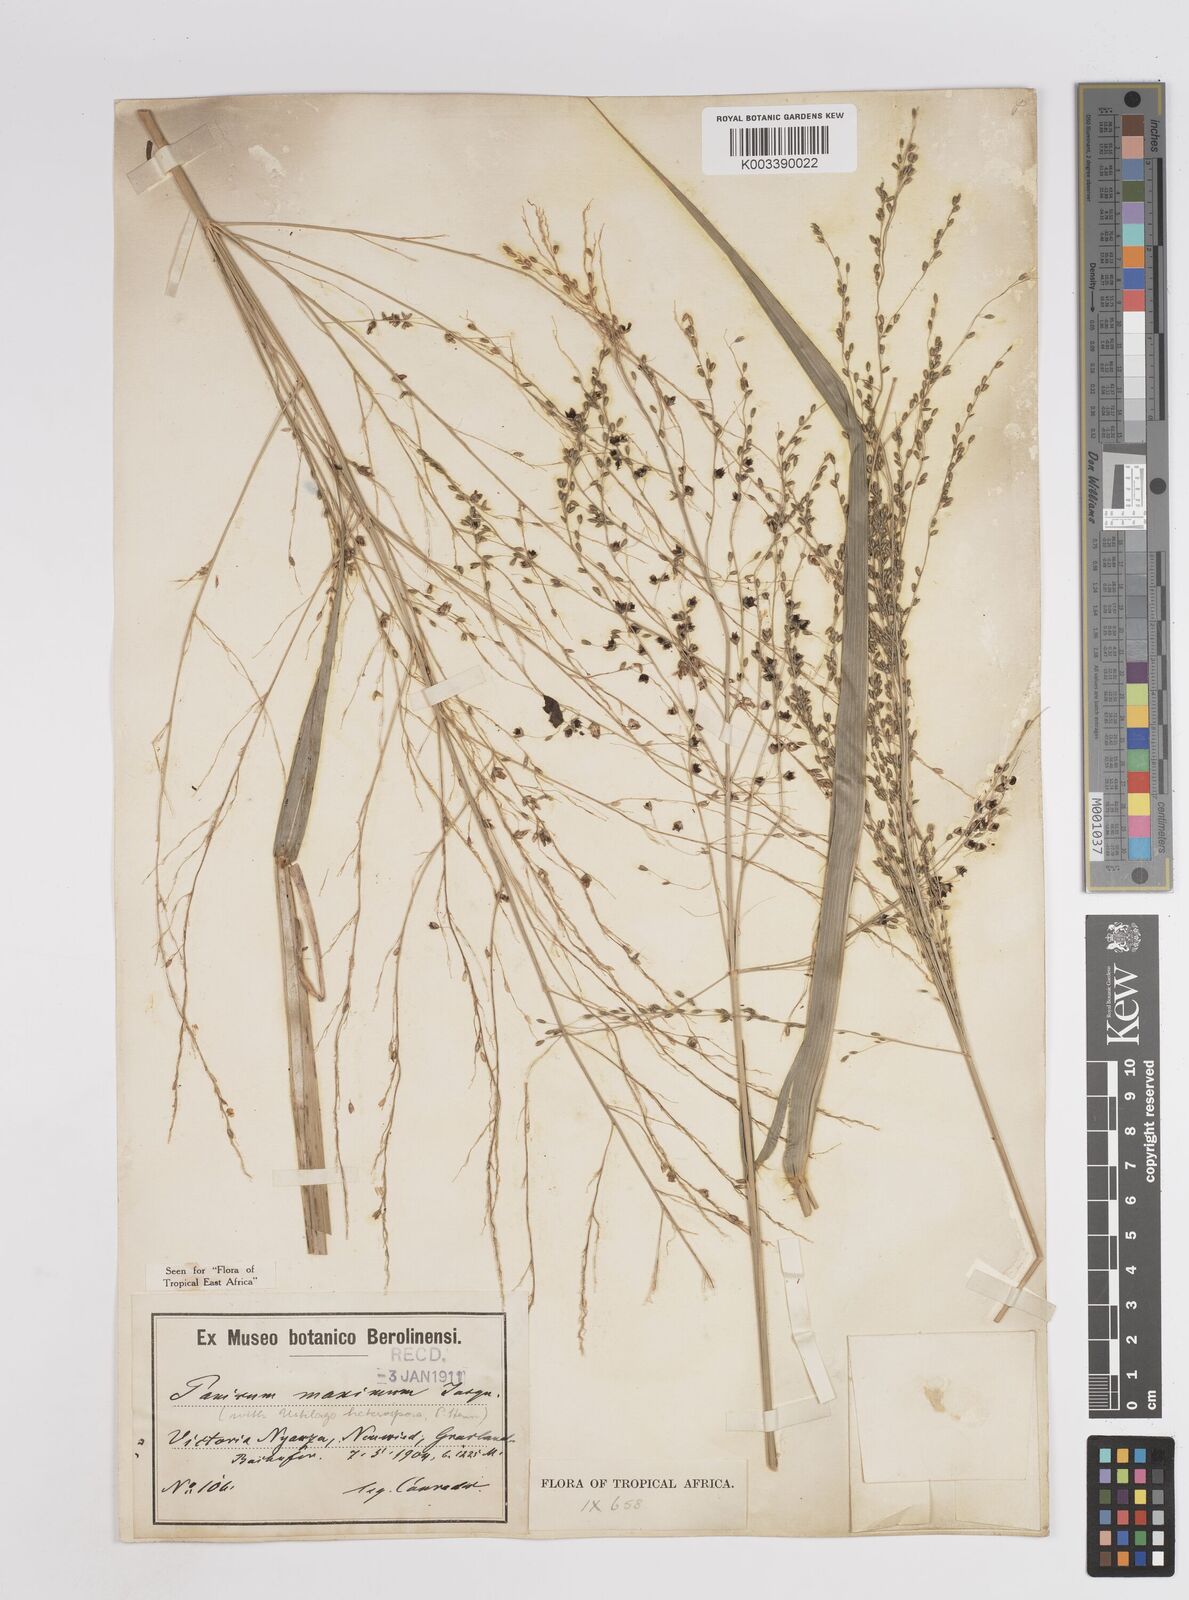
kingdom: Plantae
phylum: Tracheophyta
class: Liliopsida
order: Poales
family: Poaceae
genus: Megathyrsus
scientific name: Megathyrsus maximus
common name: Guineagrass
